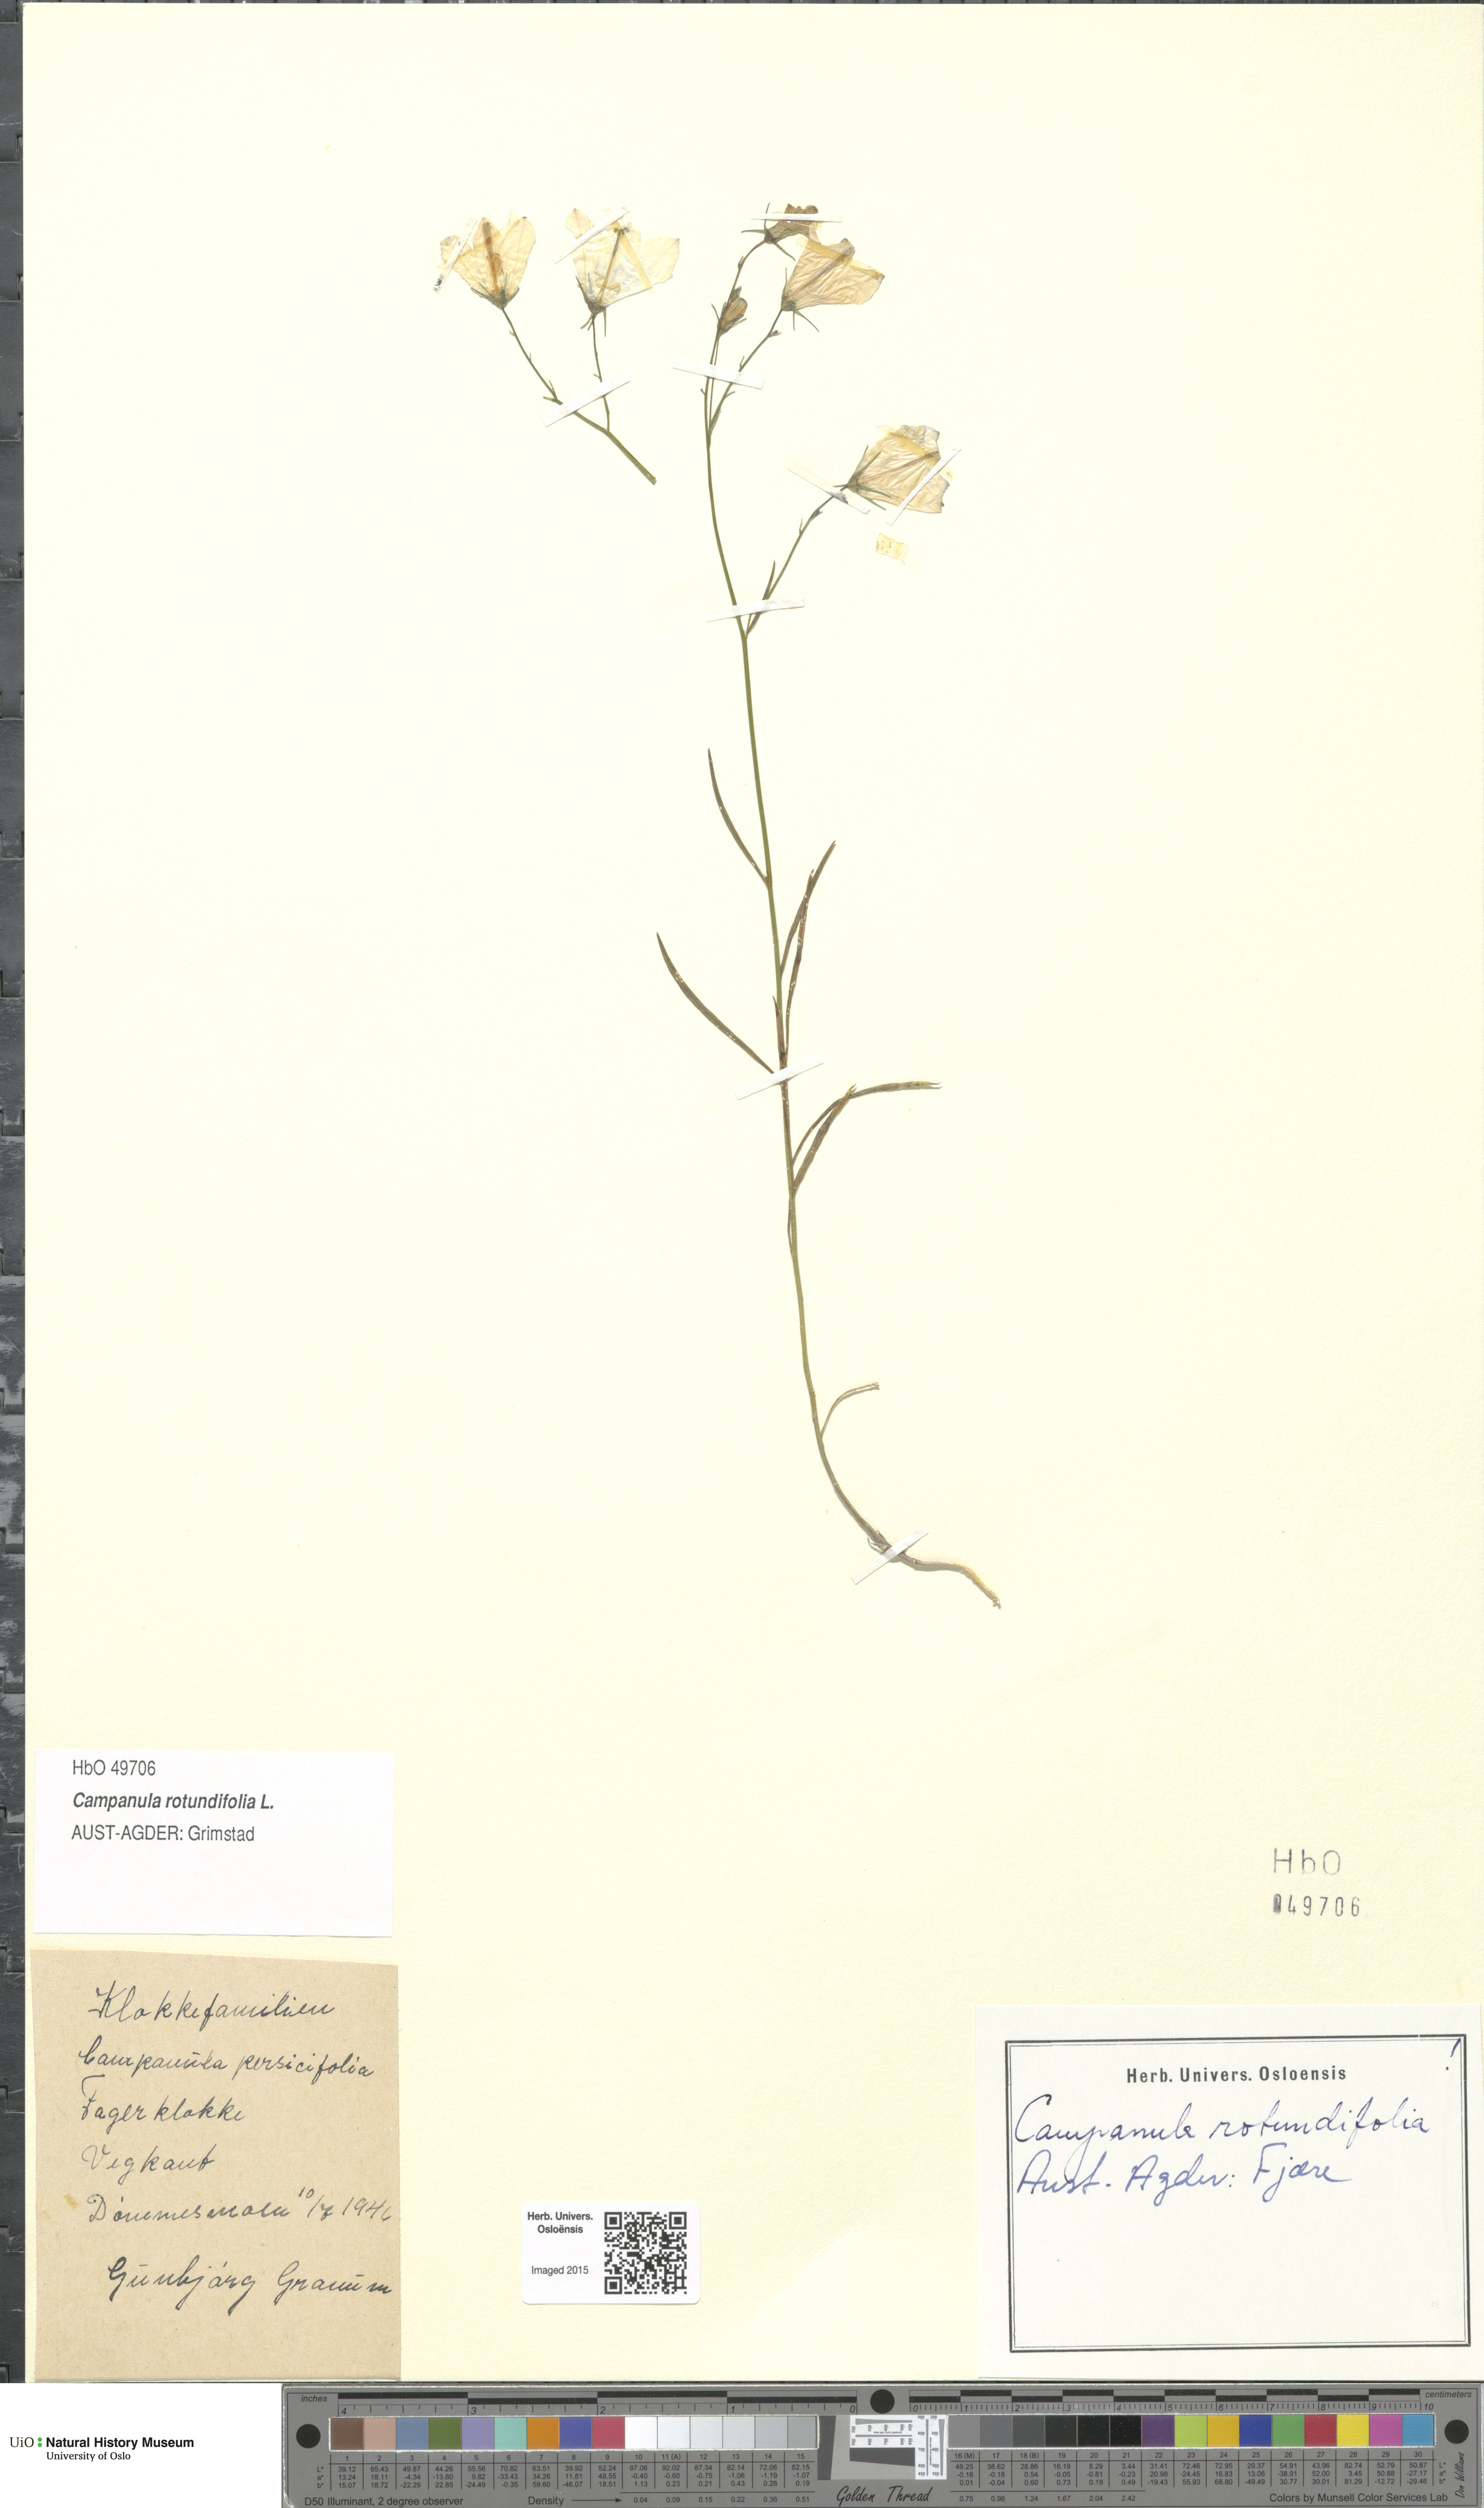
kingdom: Plantae
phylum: Tracheophyta
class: Magnoliopsida
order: Asterales
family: Campanulaceae
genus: Campanula
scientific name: Campanula rotundifolia
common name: Harebell
